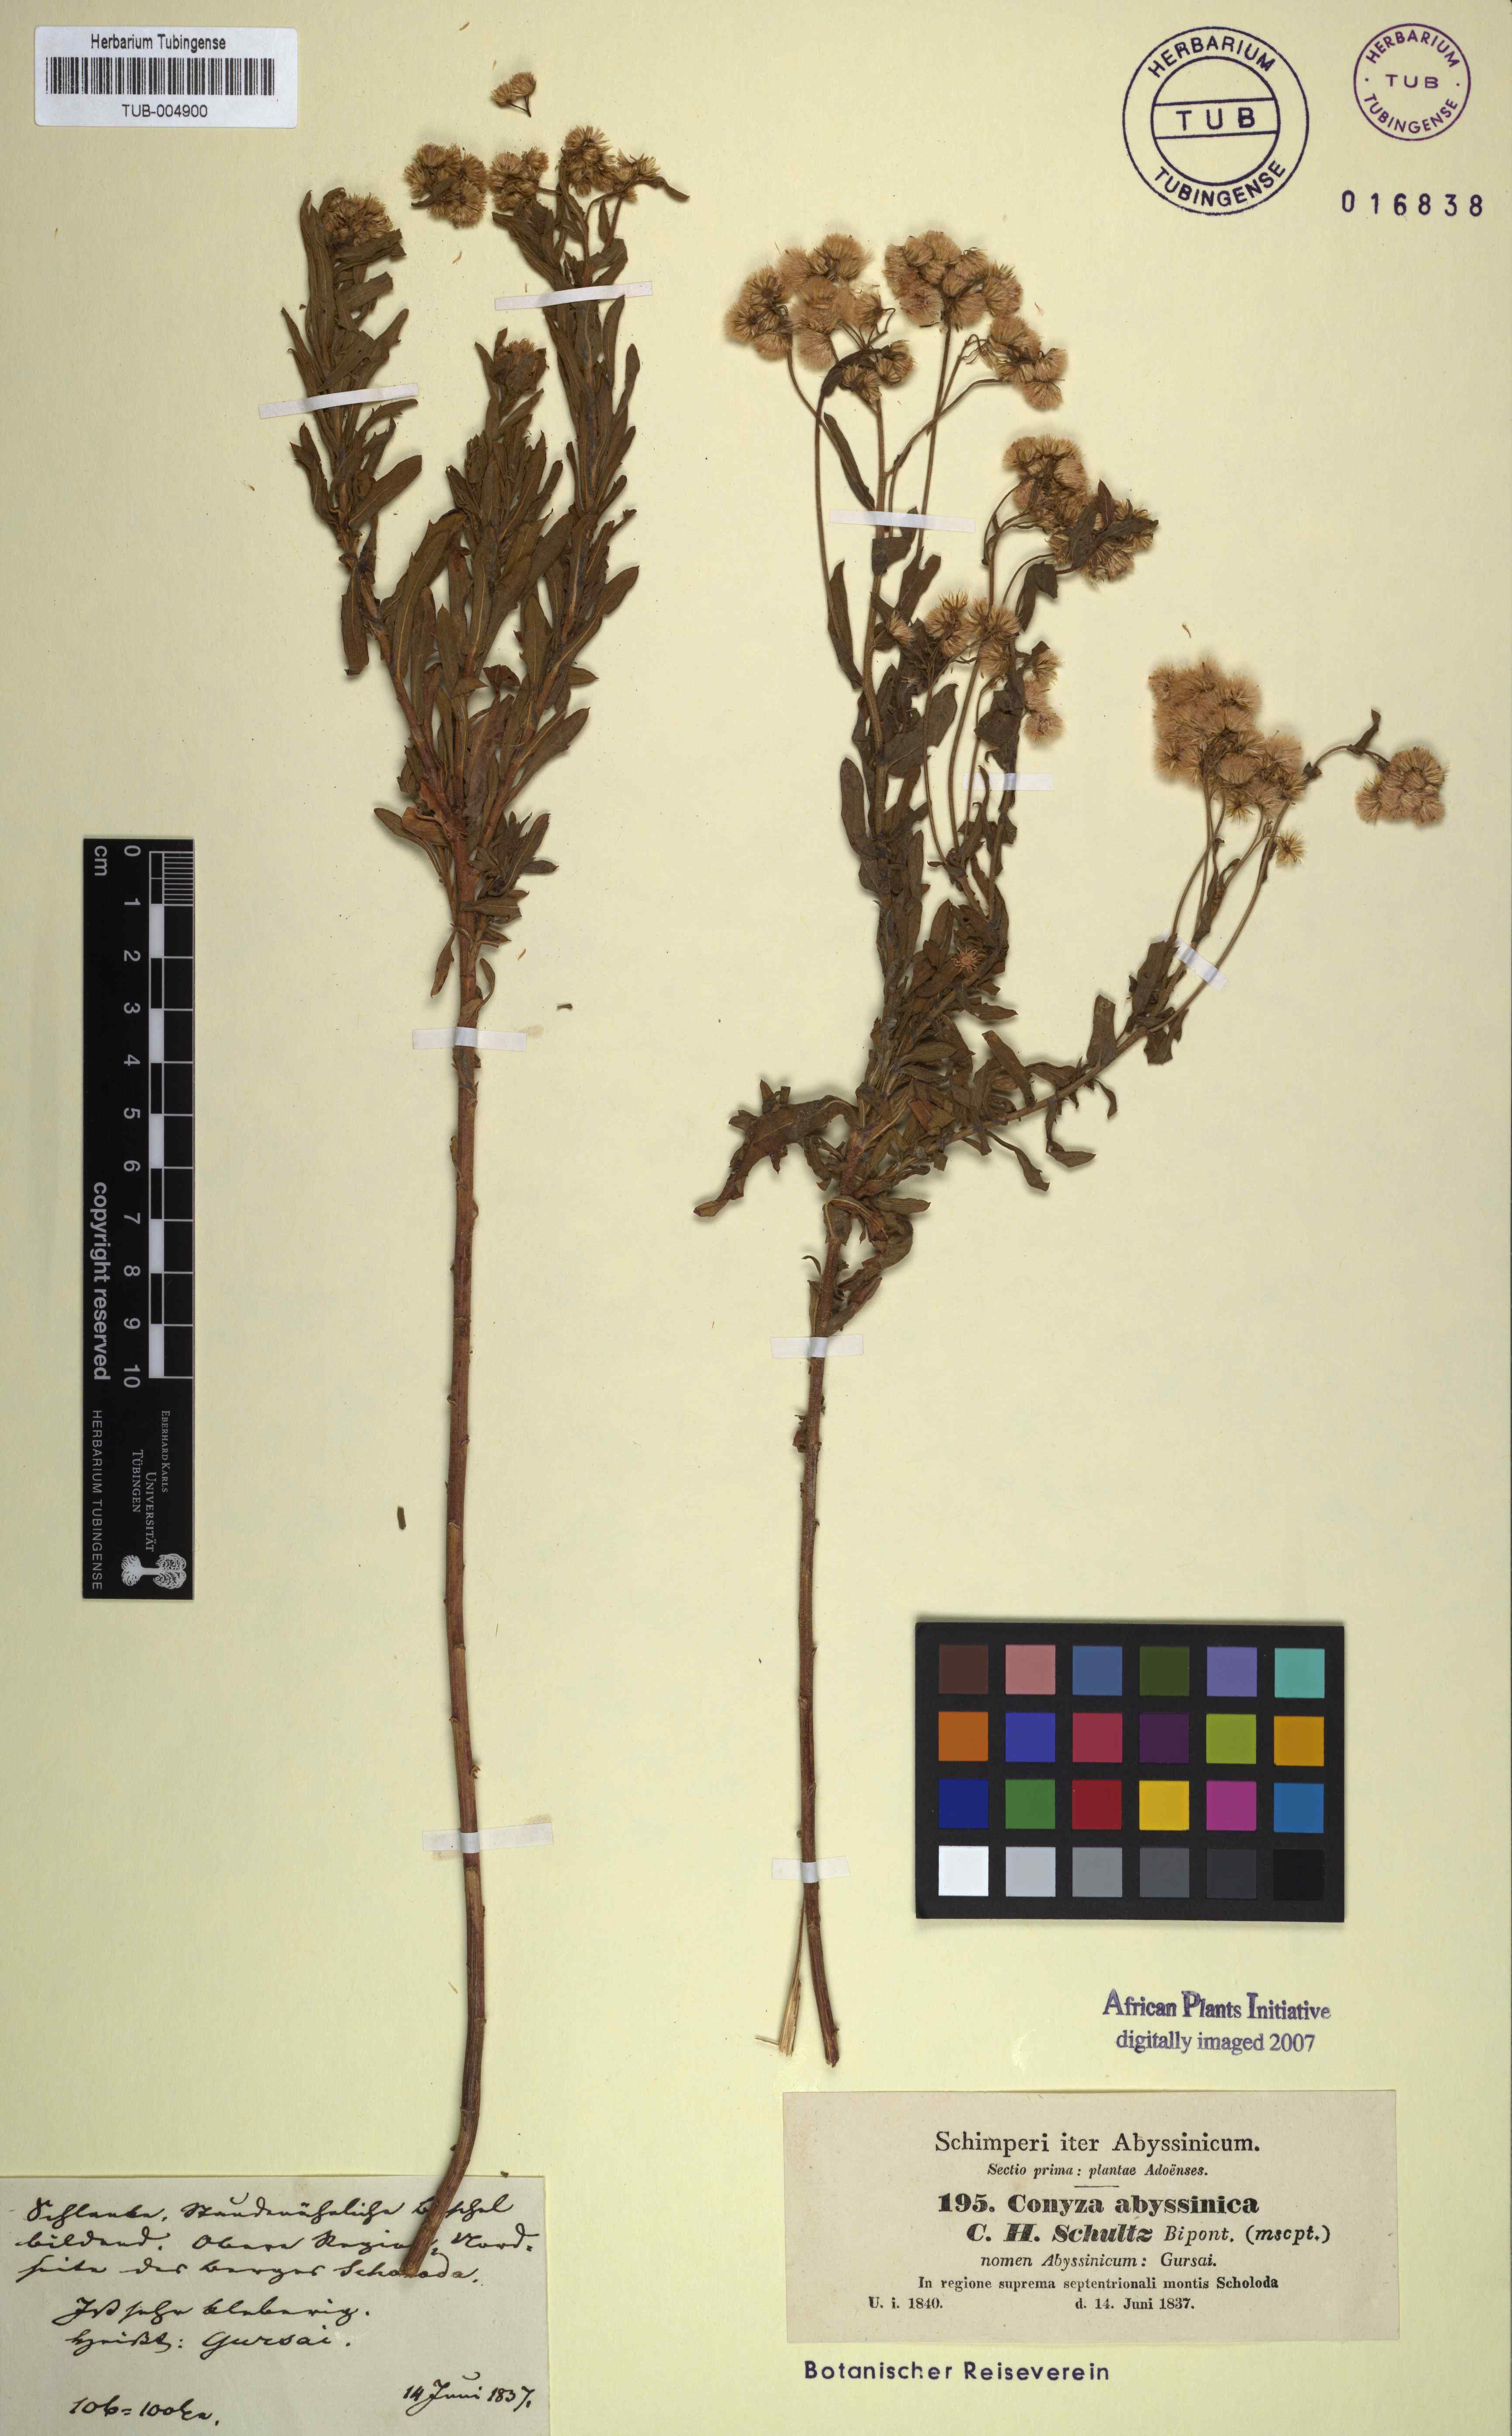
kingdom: Plantae
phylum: Tracheophyta
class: Magnoliopsida
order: Asterales
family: Asteraceae
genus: Conyza
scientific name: Conyza abyssinica
